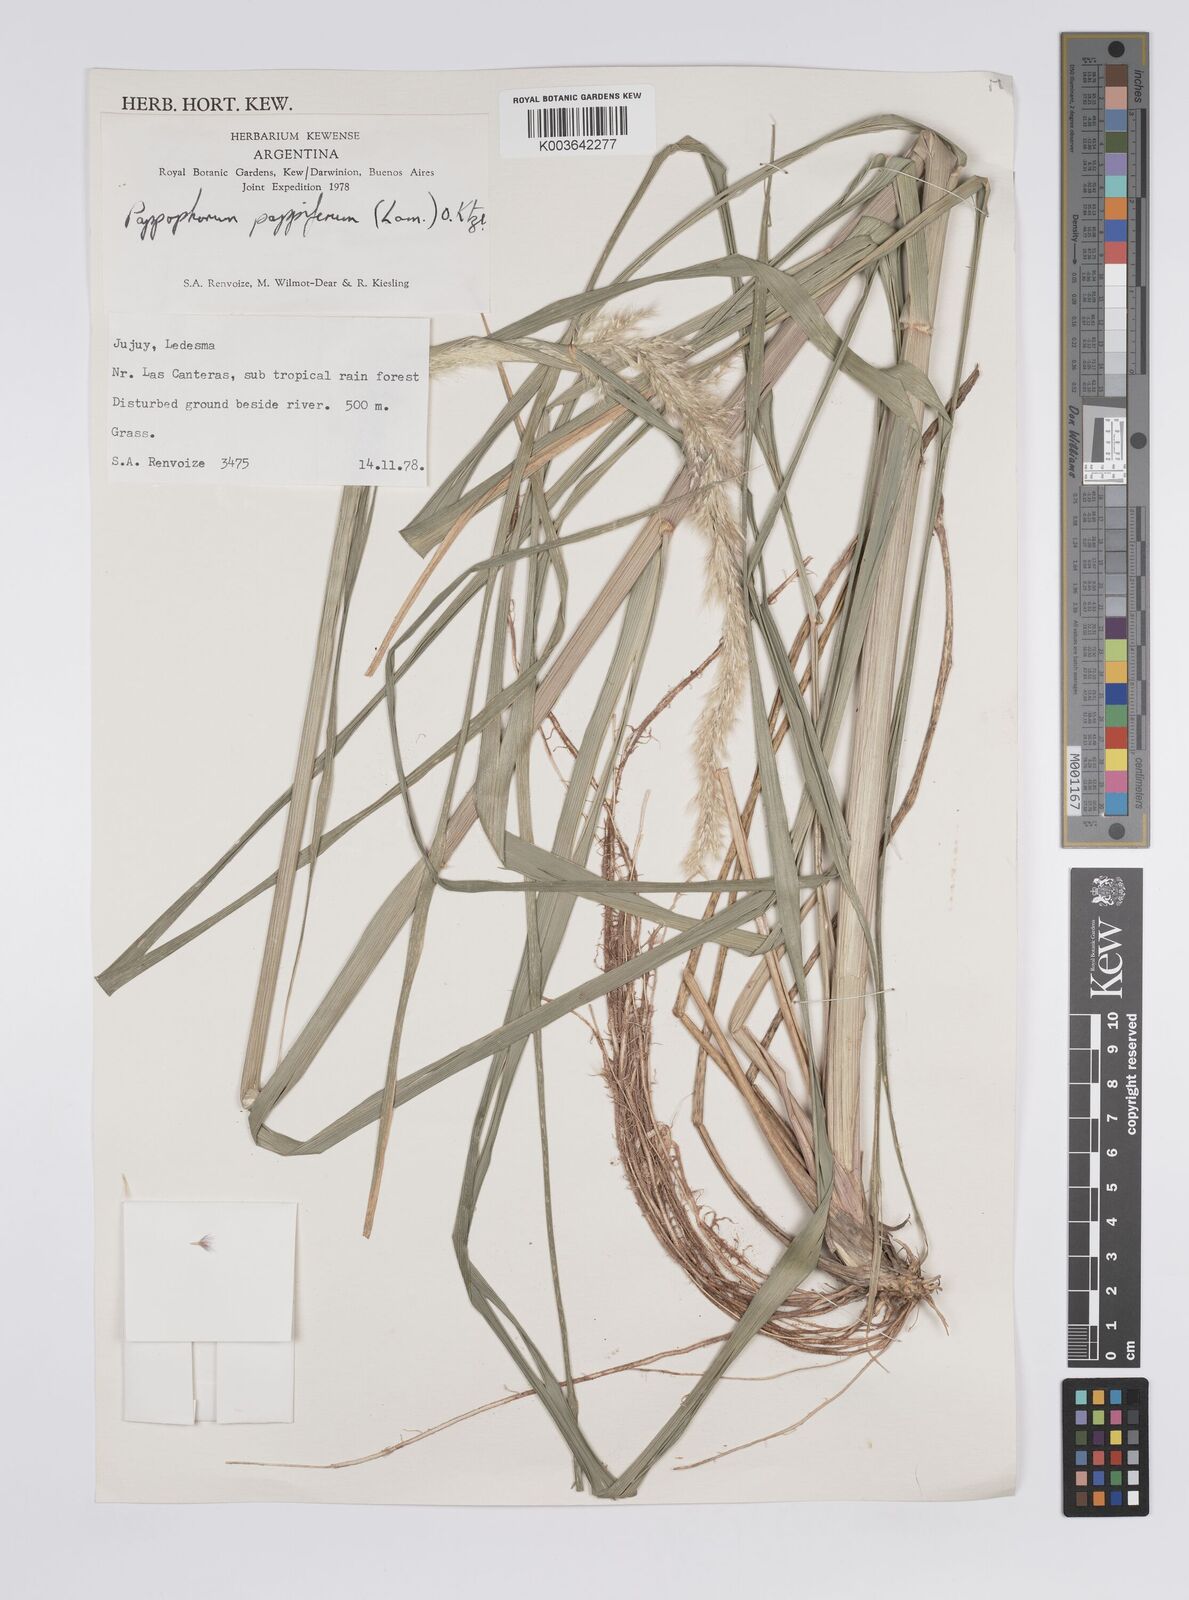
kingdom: Plantae
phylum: Tracheophyta
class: Liliopsida
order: Poales
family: Poaceae
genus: Pappophorum
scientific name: Pappophorum pappiferum
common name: Crabgrass
